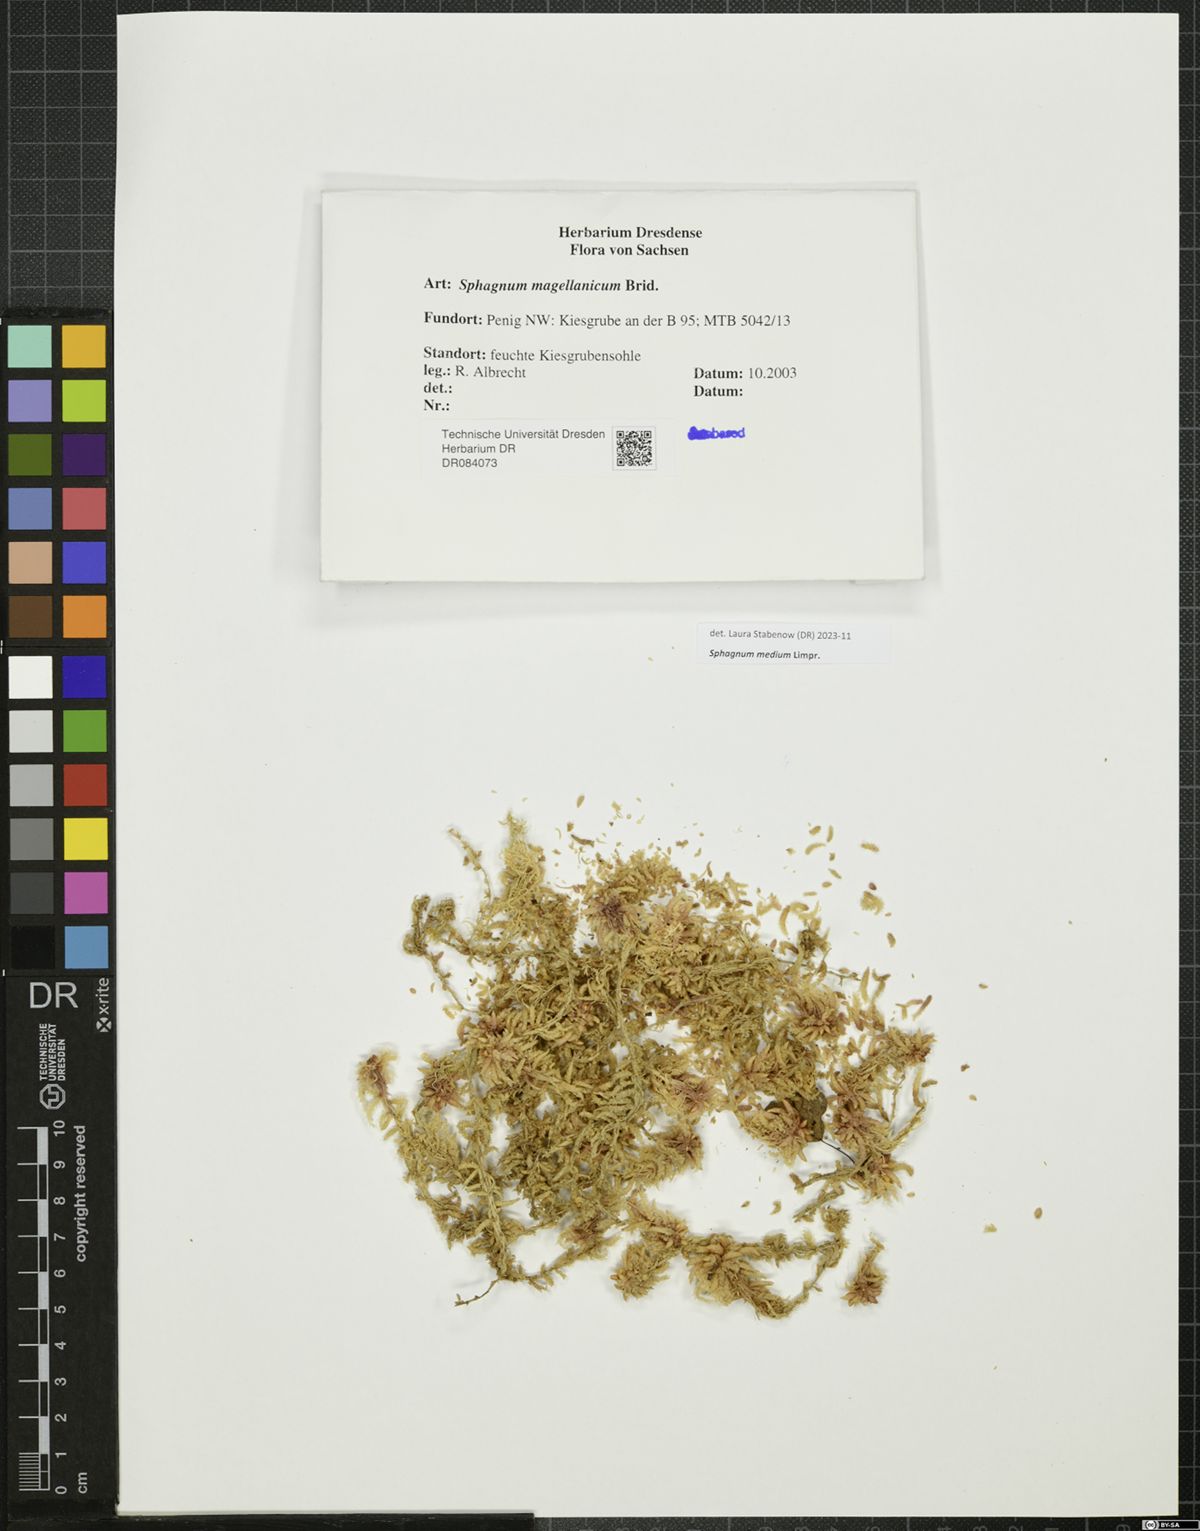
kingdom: Plantae
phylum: Bryophyta
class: Sphagnopsida
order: Sphagnales
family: Sphagnaceae
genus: Sphagnum
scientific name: Sphagnum medium
